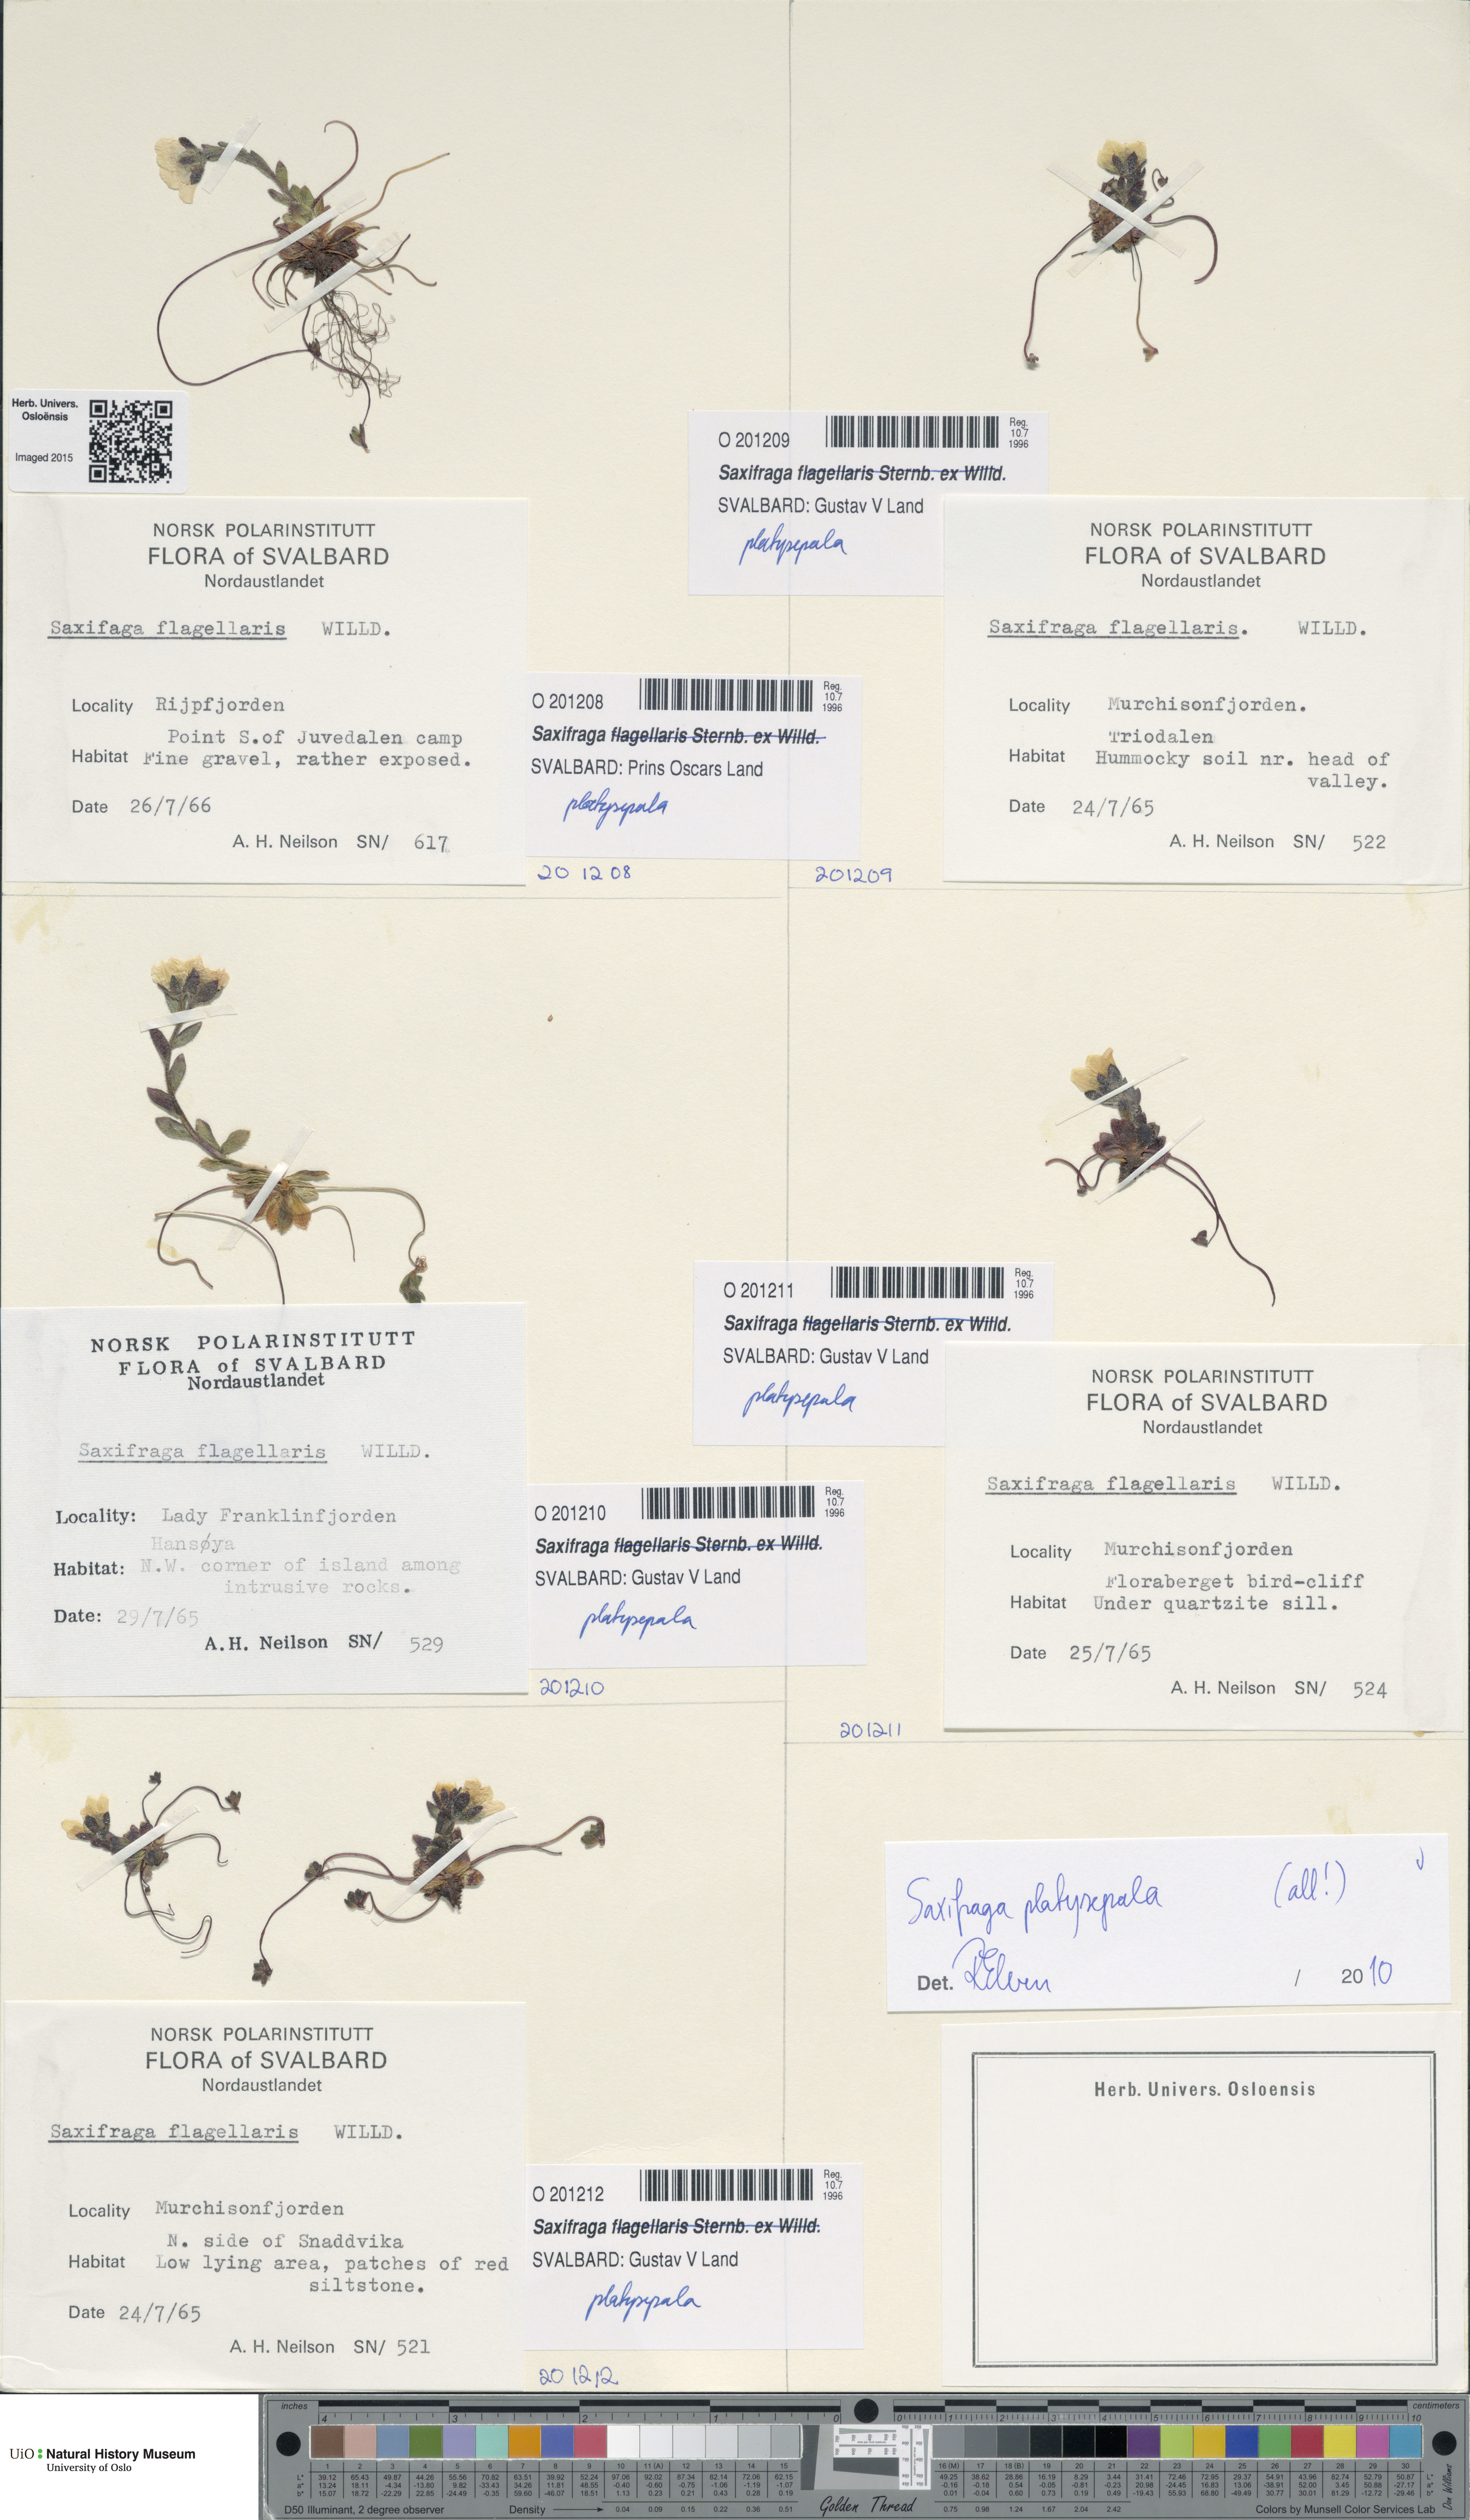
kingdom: Plantae
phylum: Tracheophyta
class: Magnoliopsida
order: Saxifragales
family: Saxifragaceae
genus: Saxifraga
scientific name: Saxifraga platysepala
